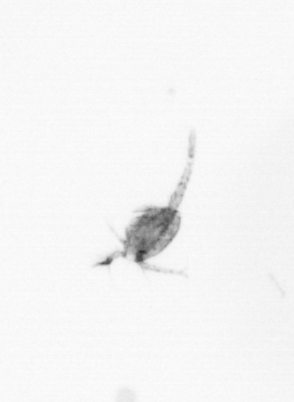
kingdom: Animalia
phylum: Arthropoda
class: Copepoda
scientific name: Copepoda
